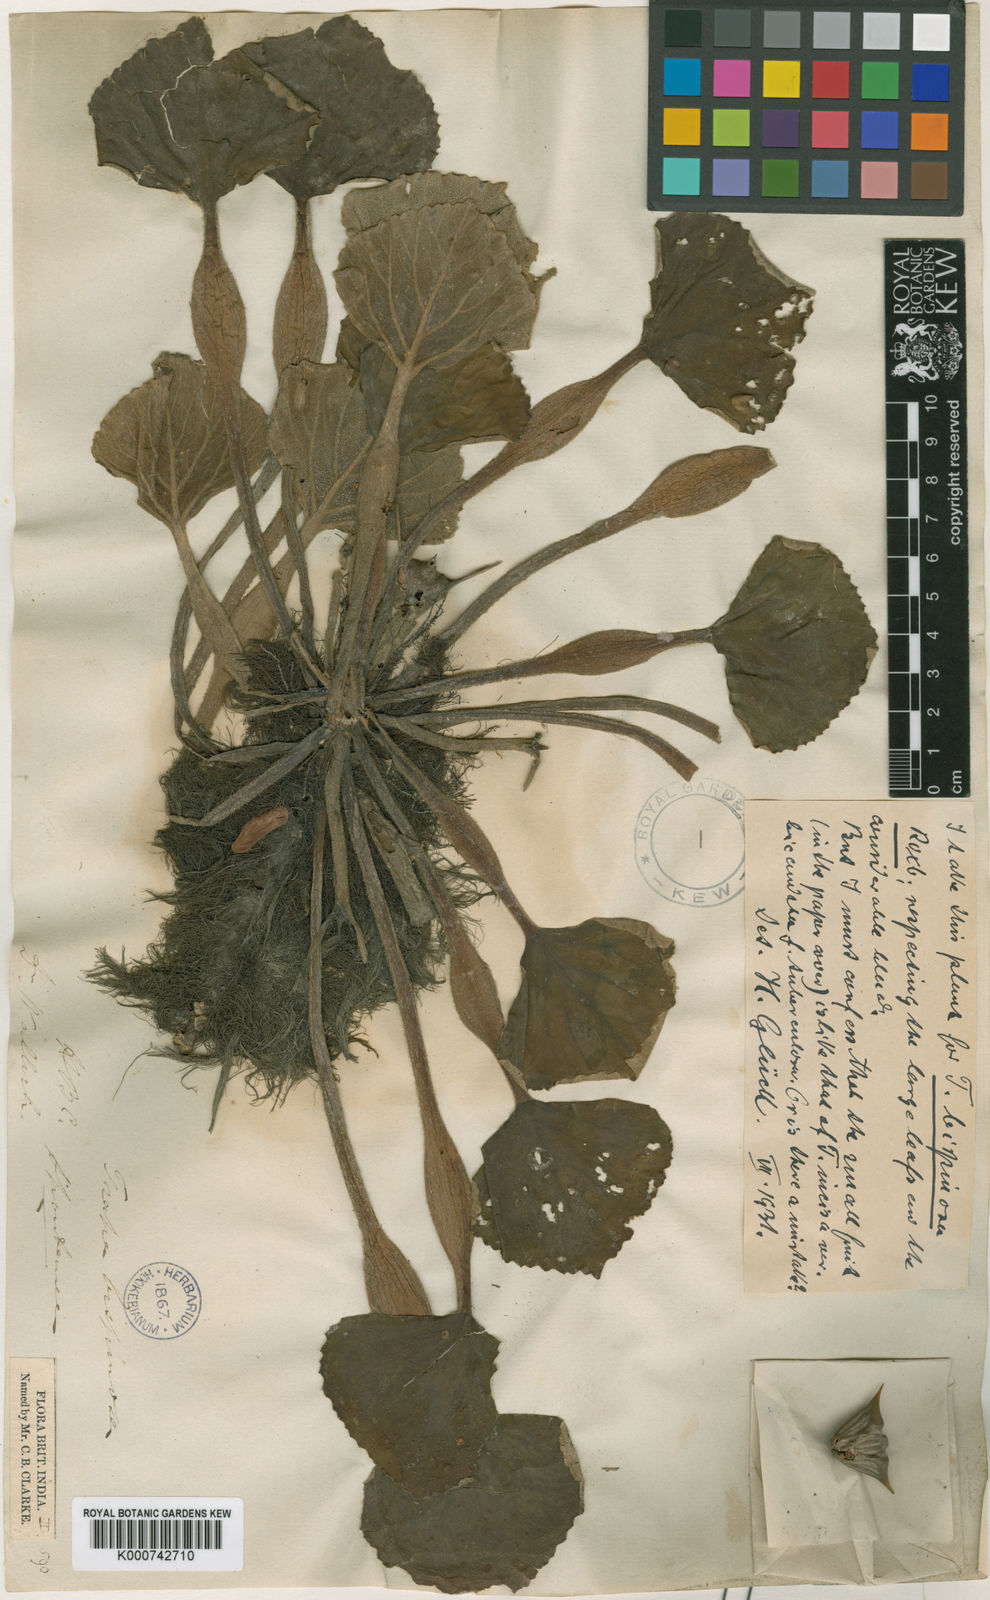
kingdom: Plantae
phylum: Tracheophyta
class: Magnoliopsida
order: Myrtales
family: Lythraceae
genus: Trapa
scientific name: Trapa natans
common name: Water chestnut
